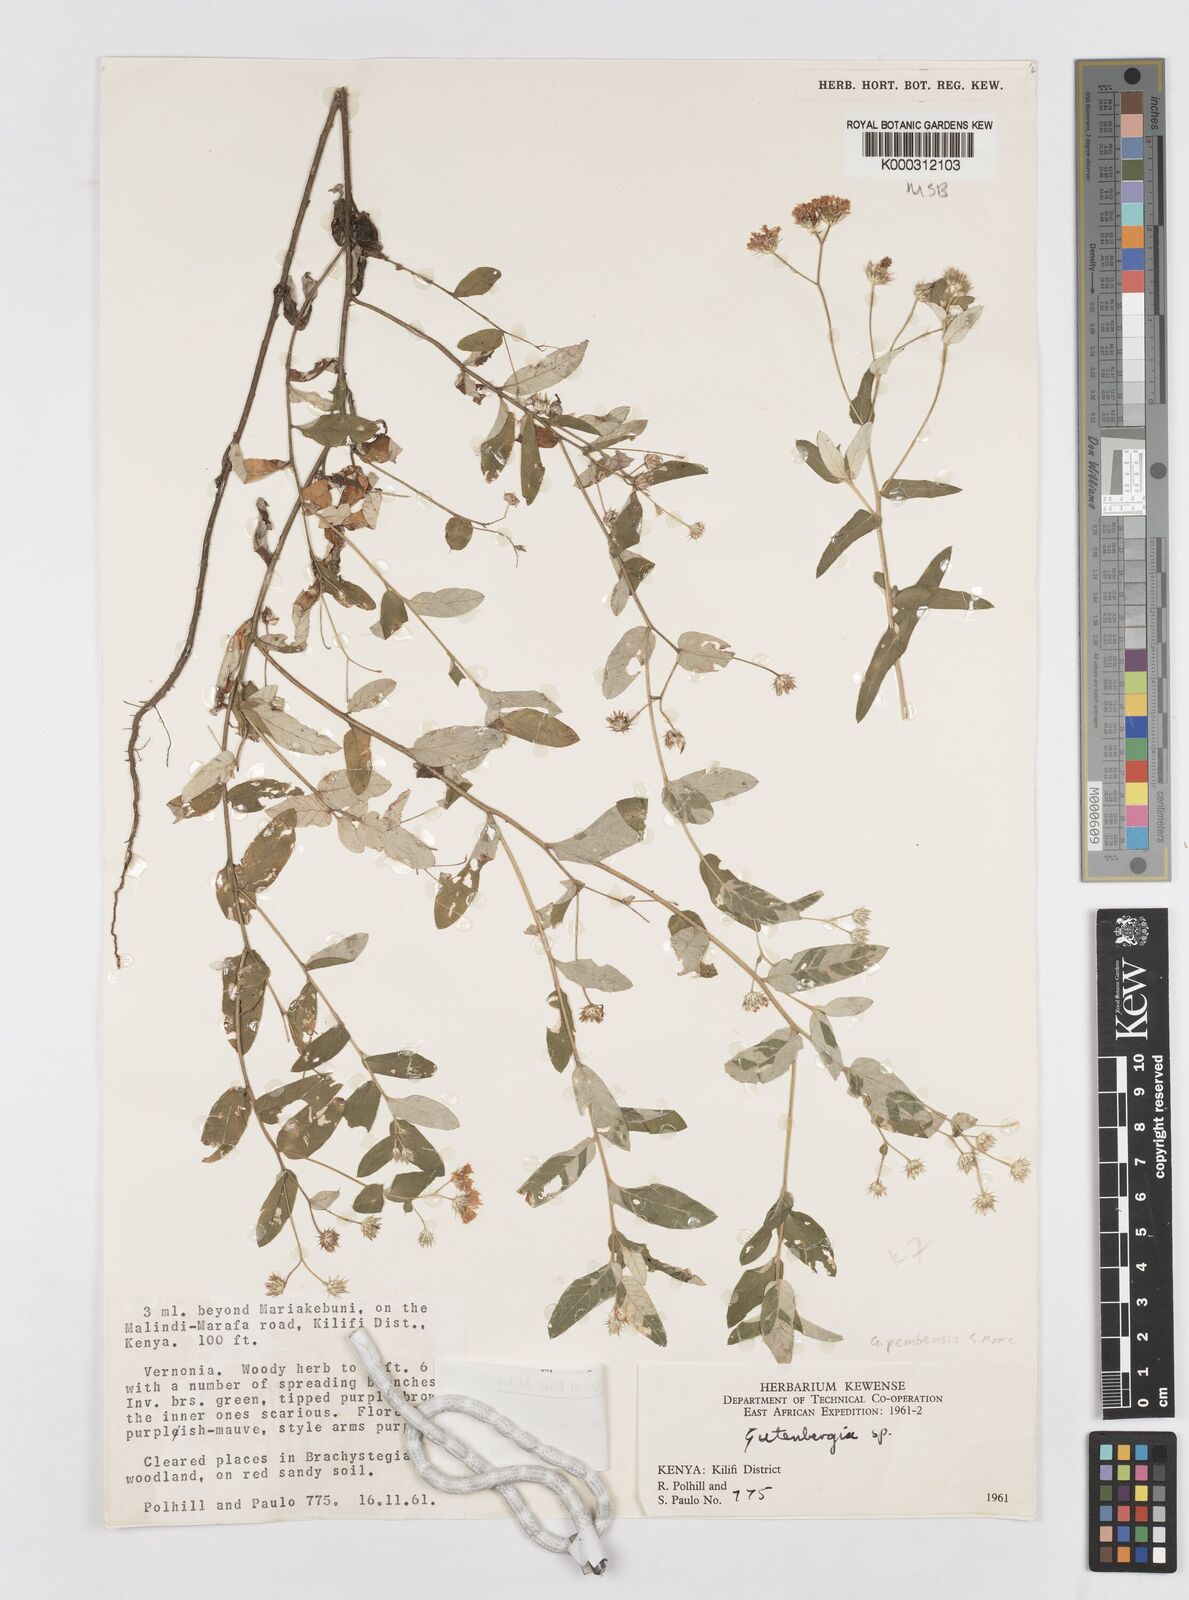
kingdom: Plantae
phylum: Tracheophyta
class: Magnoliopsida
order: Asterales
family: Asteraceae
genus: Gutenbergia
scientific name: Gutenbergia pembensis
